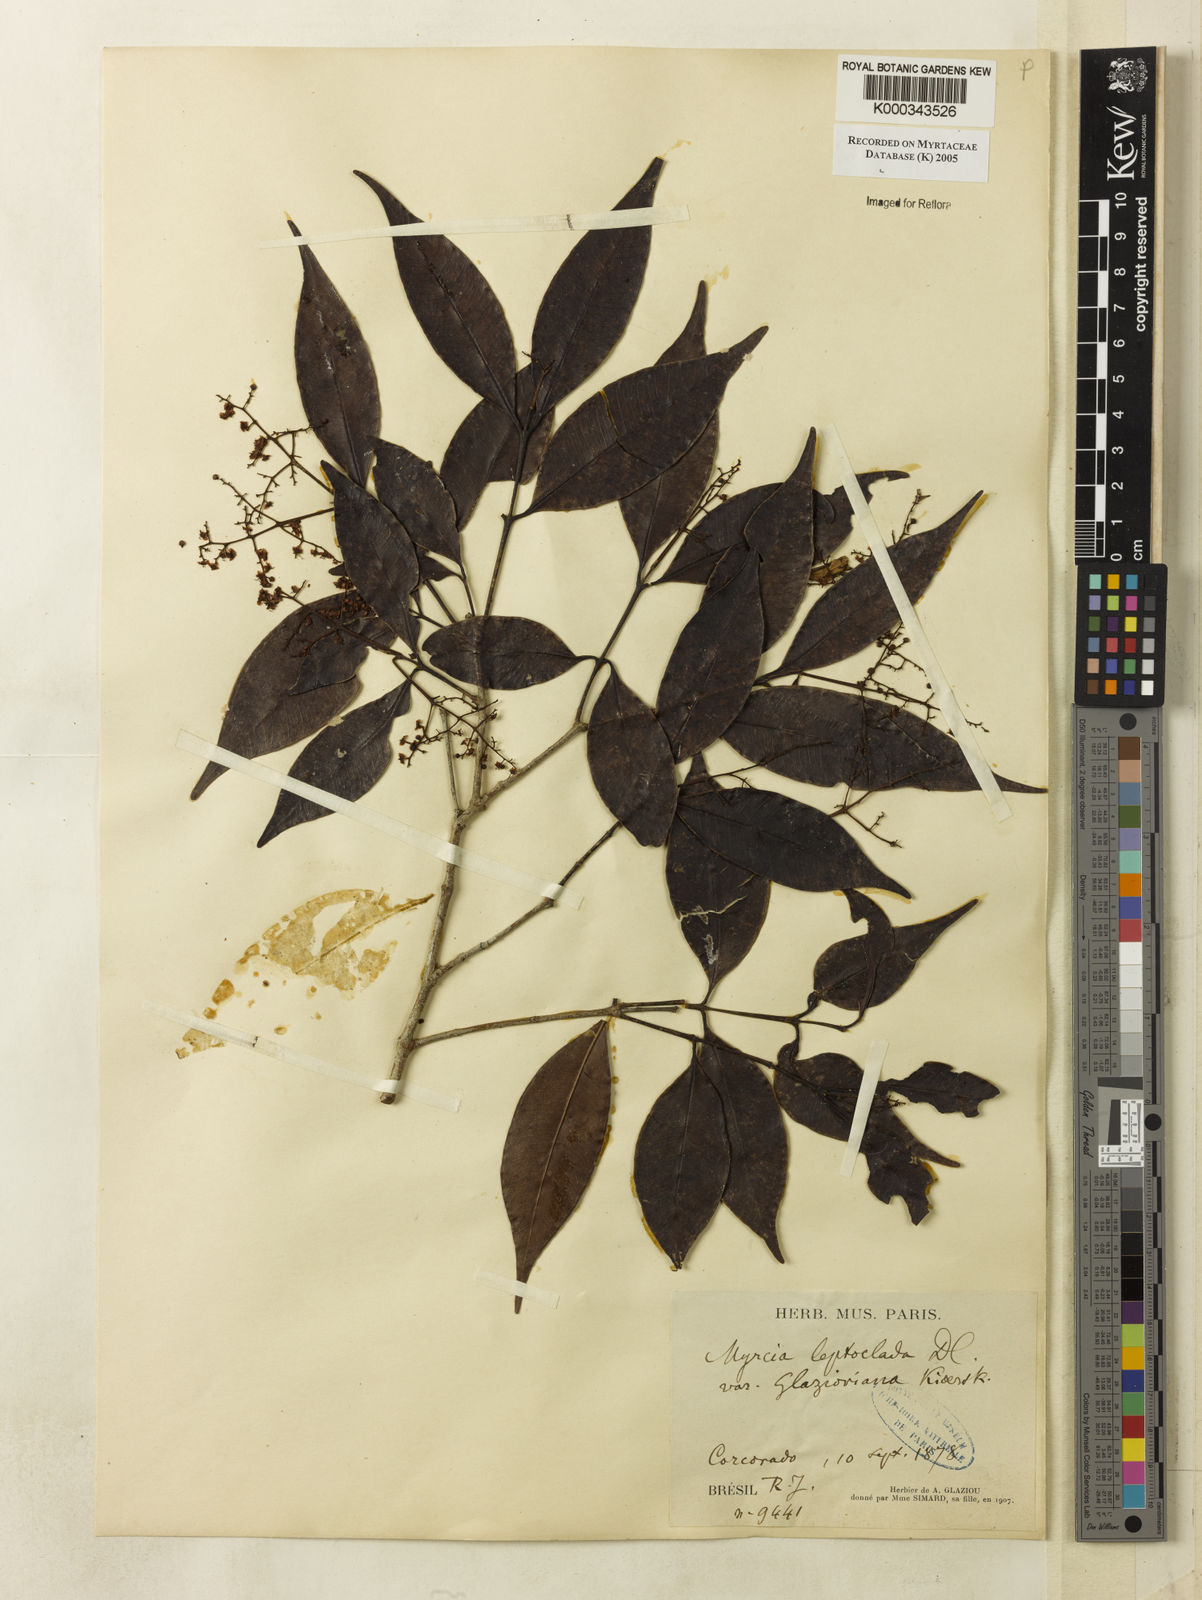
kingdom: Plantae
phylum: Tracheophyta
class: Magnoliopsida
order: Myrtales
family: Myrtaceae
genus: Myrcia
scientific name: Myrcia amazonica
